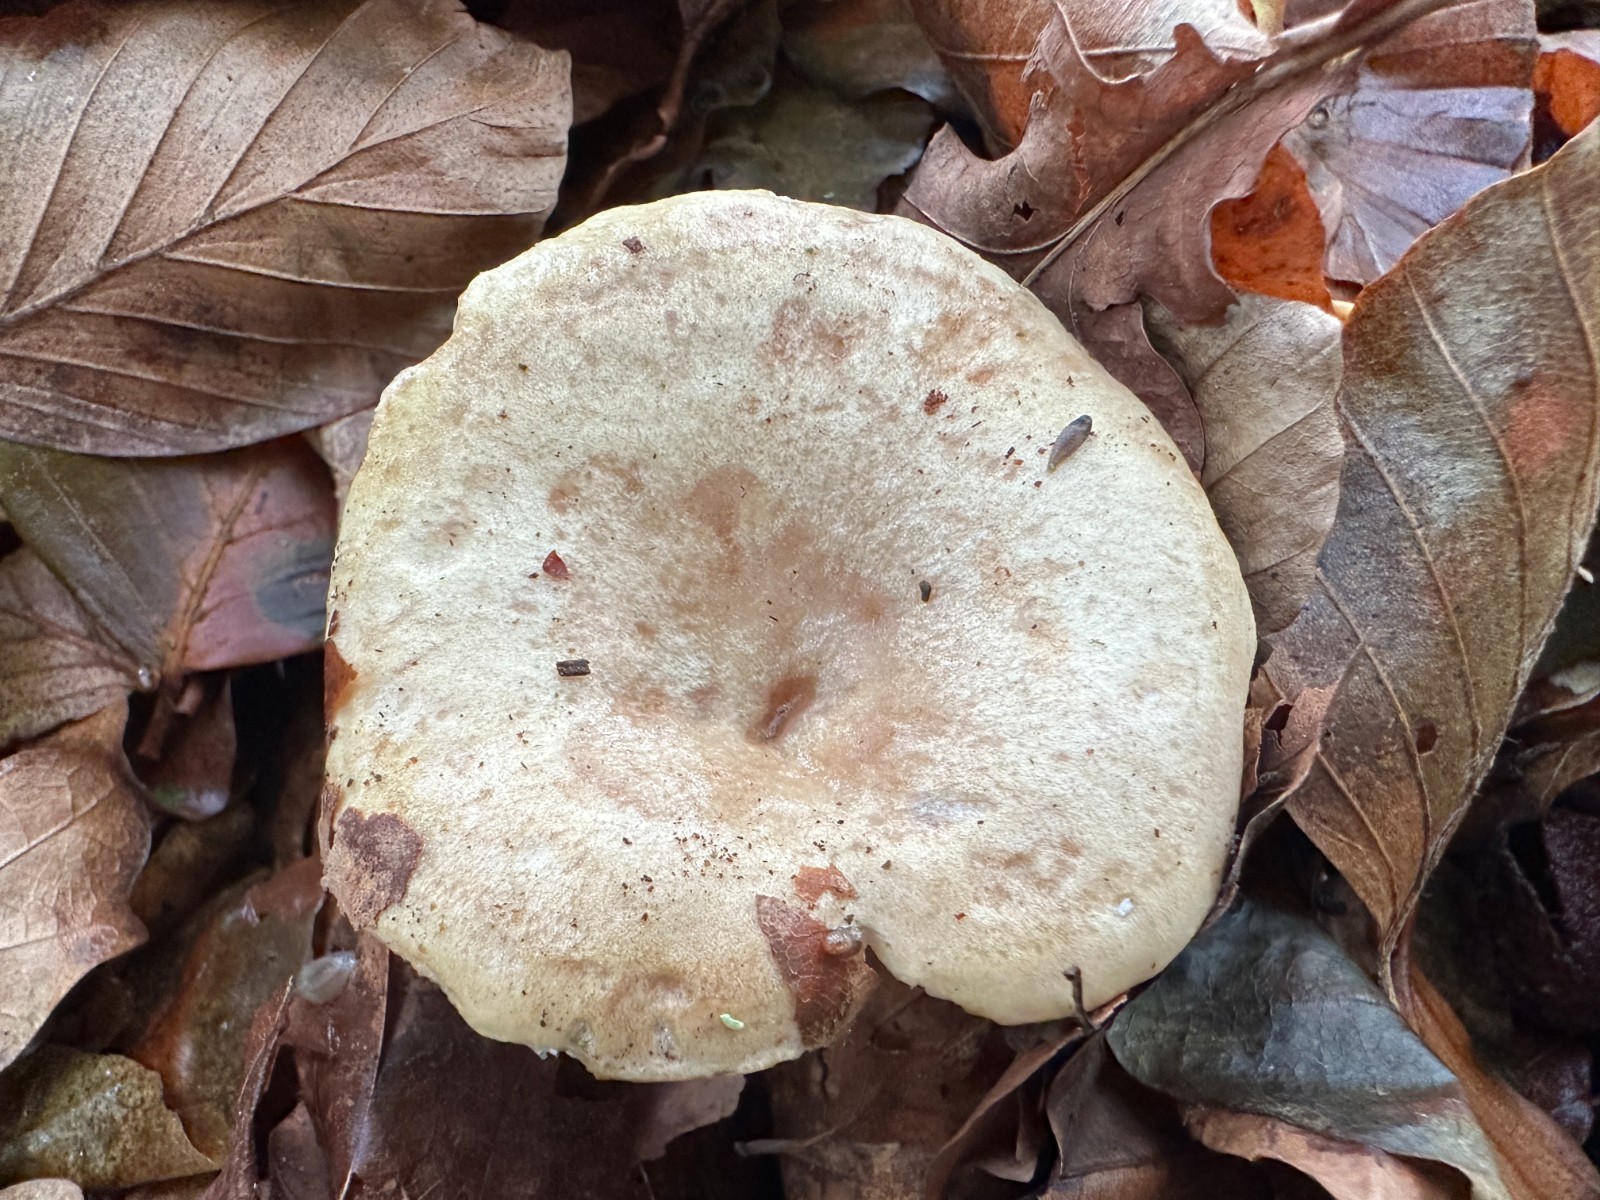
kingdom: Fungi
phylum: Basidiomycota
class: Agaricomycetes
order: Russulales
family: Russulaceae
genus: Lactarius
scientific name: Lactarius pallidus
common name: bleg mælkehat
